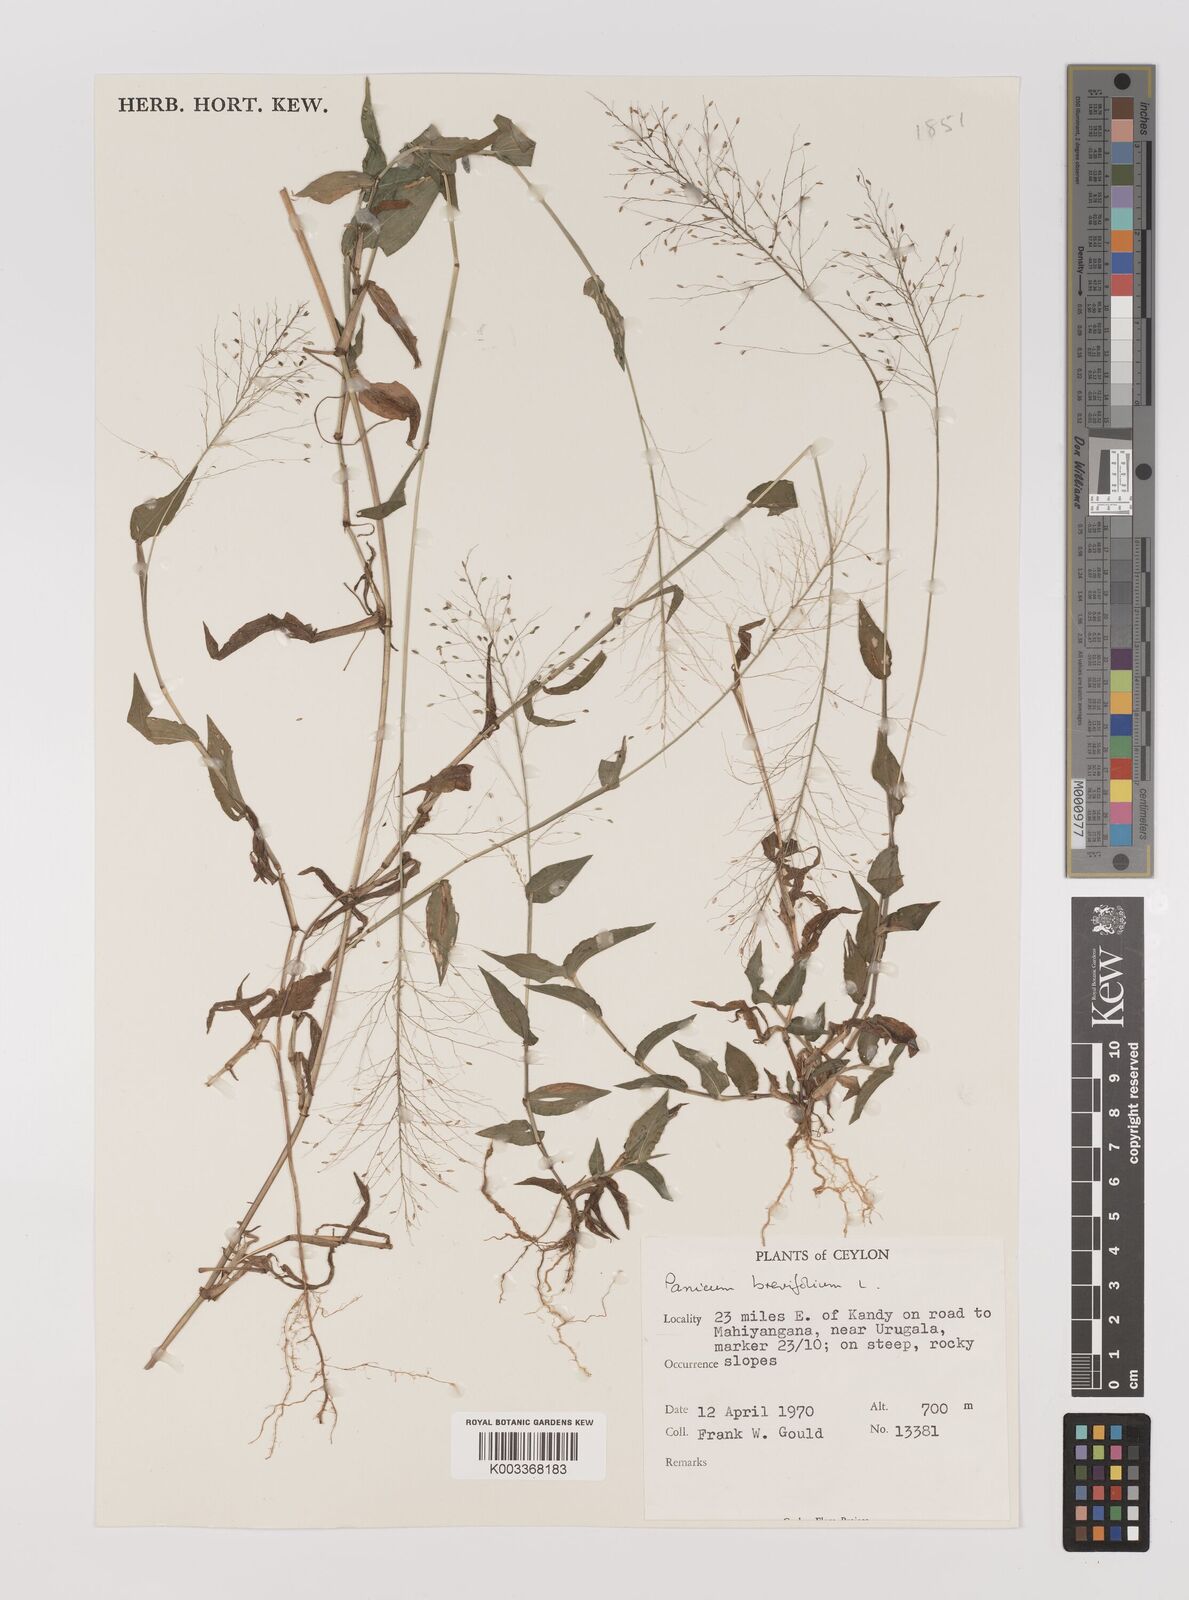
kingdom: Plantae
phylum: Tracheophyta
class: Liliopsida
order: Poales
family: Poaceae
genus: Panicum
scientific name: Panicum brevifolium
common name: Shortleaf panic grass
